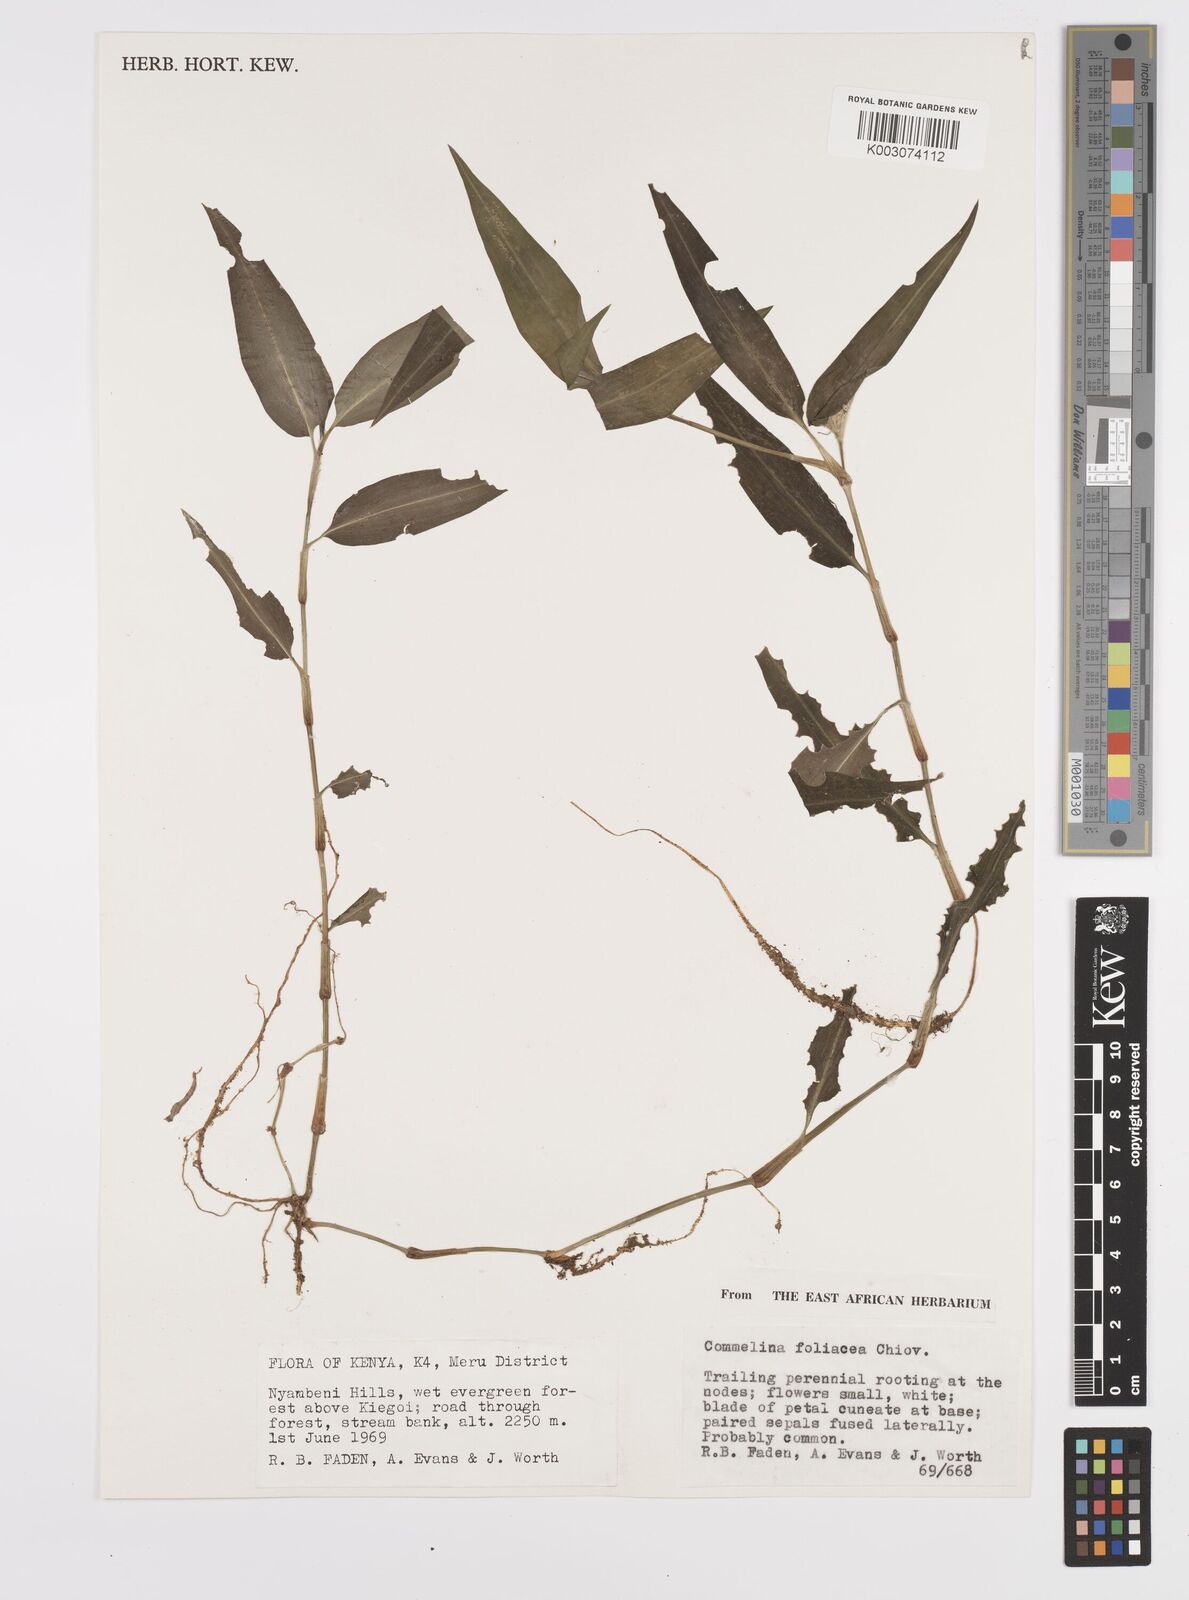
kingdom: Plantae
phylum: Tracheophyta
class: Liliopsida
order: Commelinales
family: Commelinaceae
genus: Commelina
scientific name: Commelina foliacea
